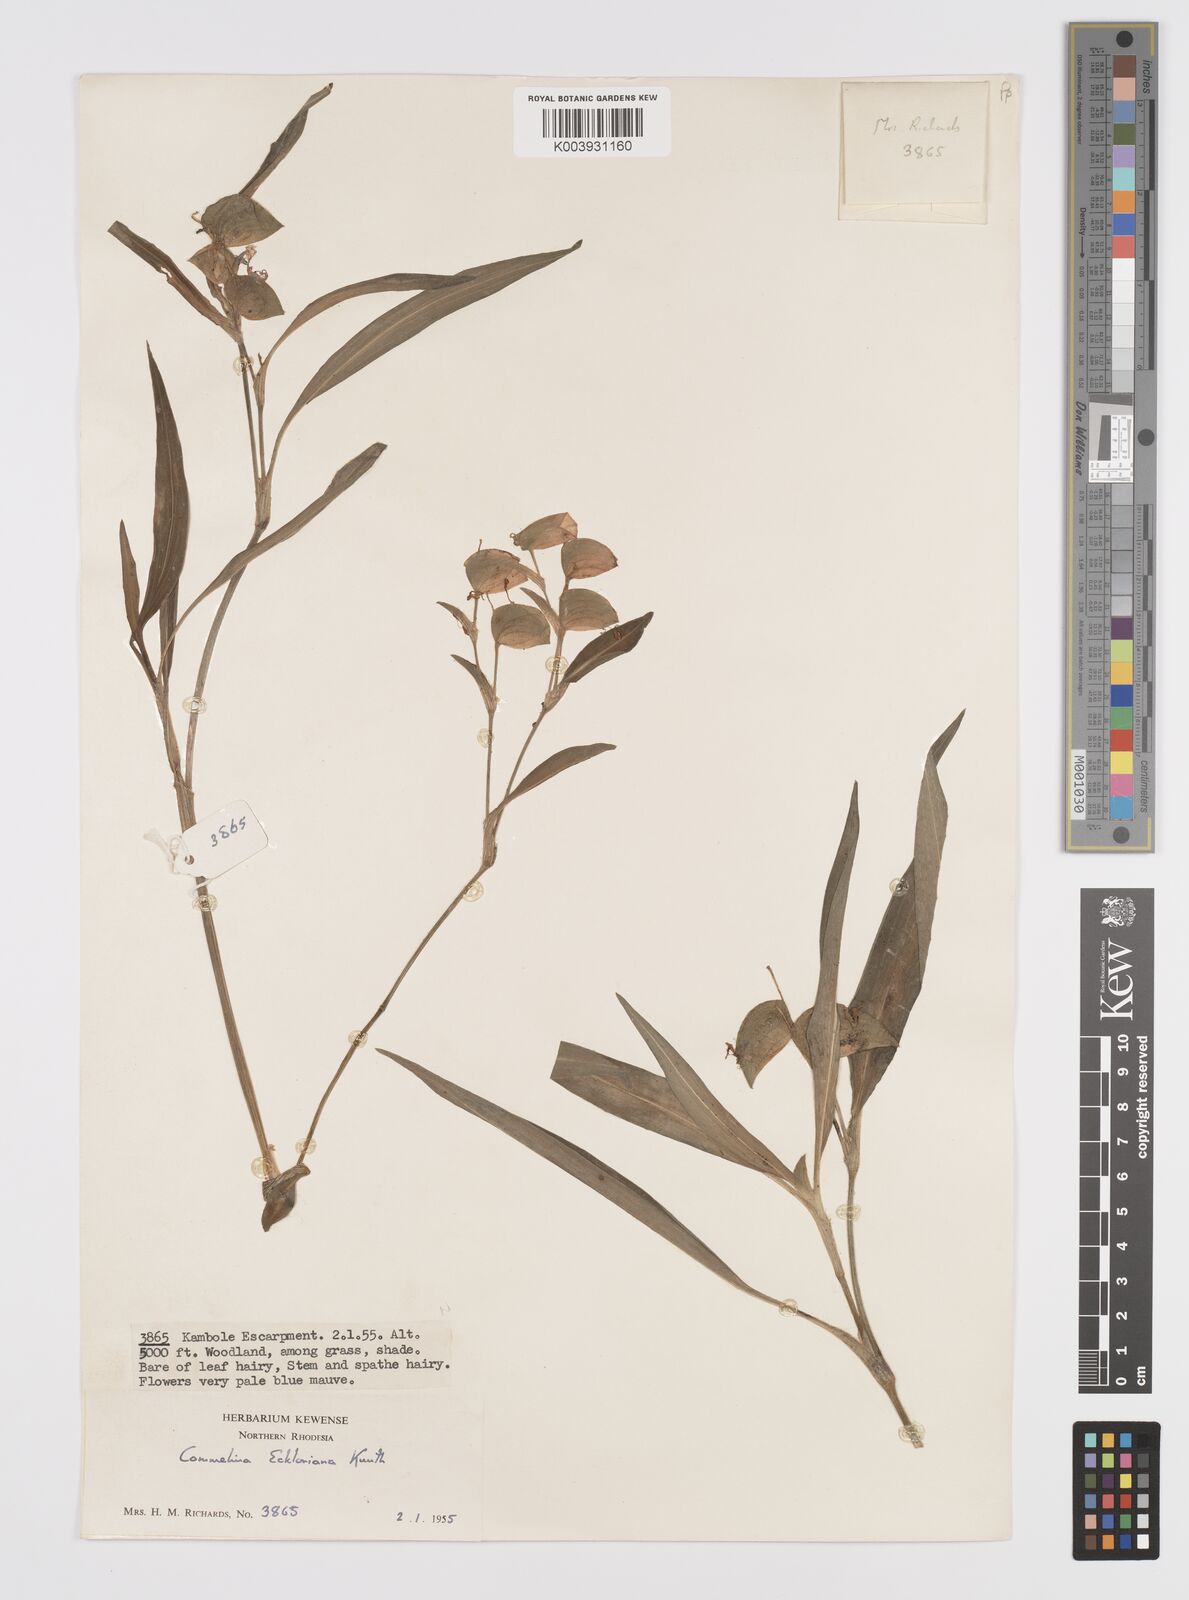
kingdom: Plantae
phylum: Tracheophyta
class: Liliopsida
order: Commelinales
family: Commelinaceae
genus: Commelina
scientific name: Commelina eckloniana
